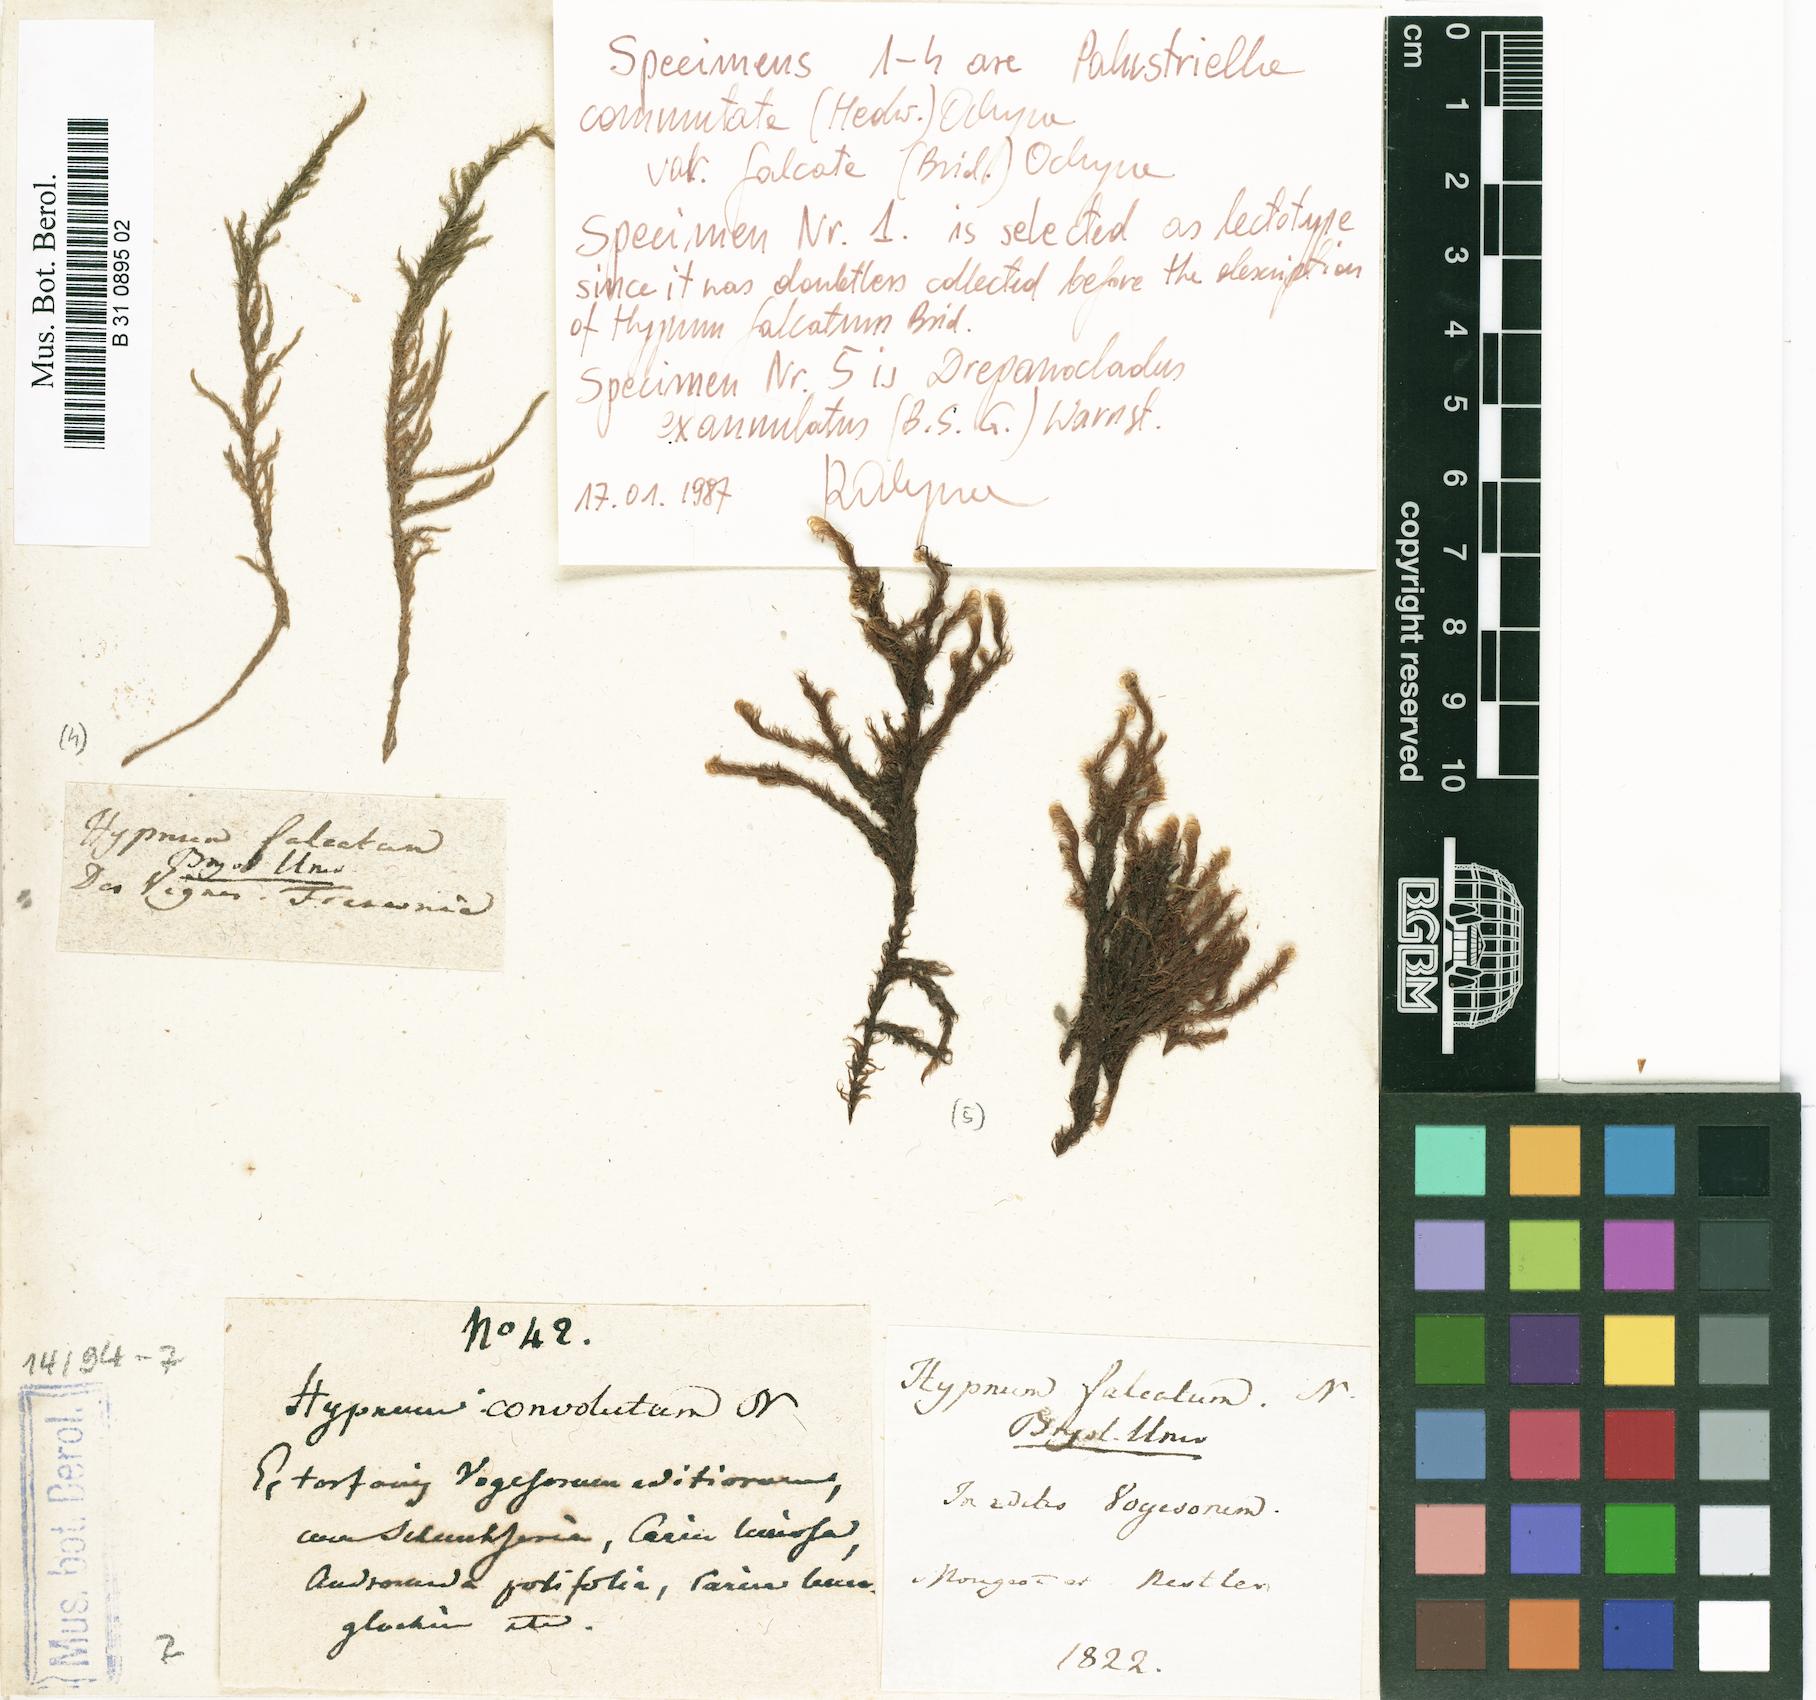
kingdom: Plantae
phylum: Bryophyta
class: Bryopsida
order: Hypnales
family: Amblystegiaceae
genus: Palustriella
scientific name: Palustriella falcata
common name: Curled hook-moss
